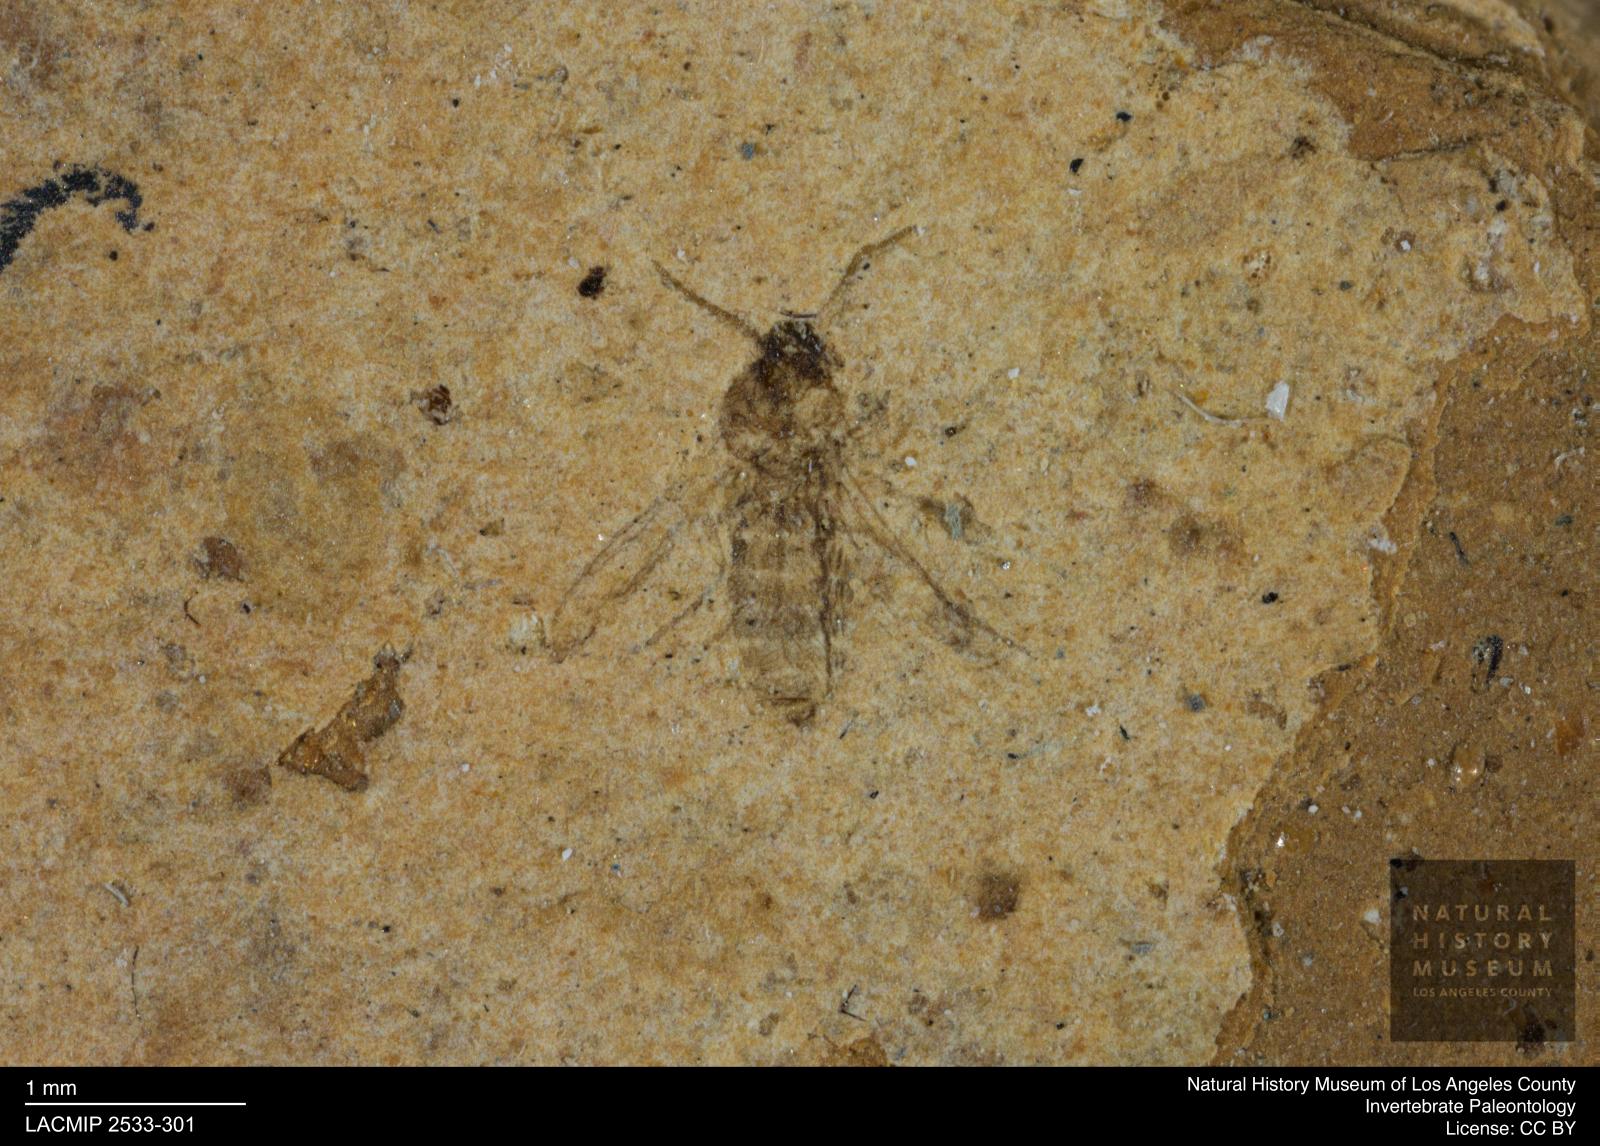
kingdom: Animalia
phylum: Arthropoda
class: Insecta
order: Diptera
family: Ceratopogonidae
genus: Atrichopogon
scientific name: Atrichopogon brunnescens
